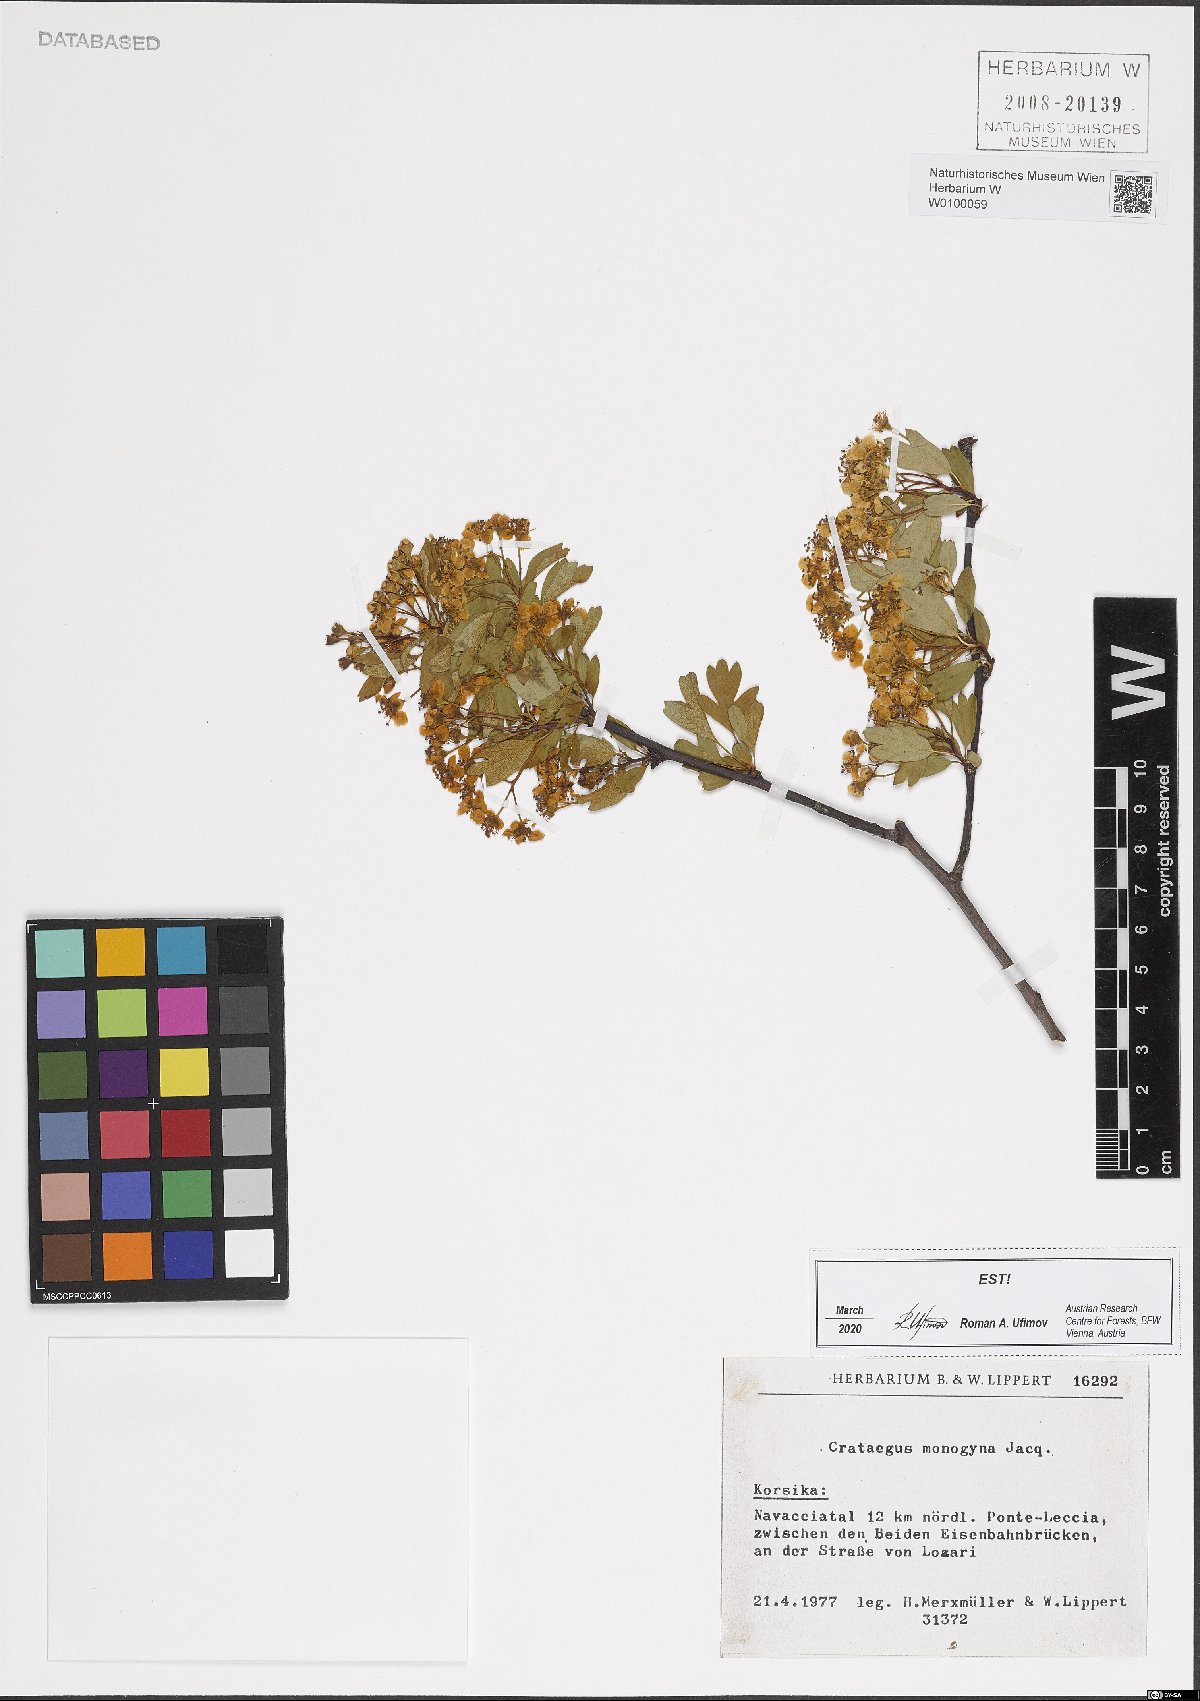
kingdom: Plantae
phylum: Tracheophyta
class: Magnoliopsida
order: Rosales
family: Rosaceae
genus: Crataegus
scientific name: Crataegus monogyna
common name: Hawthorn
